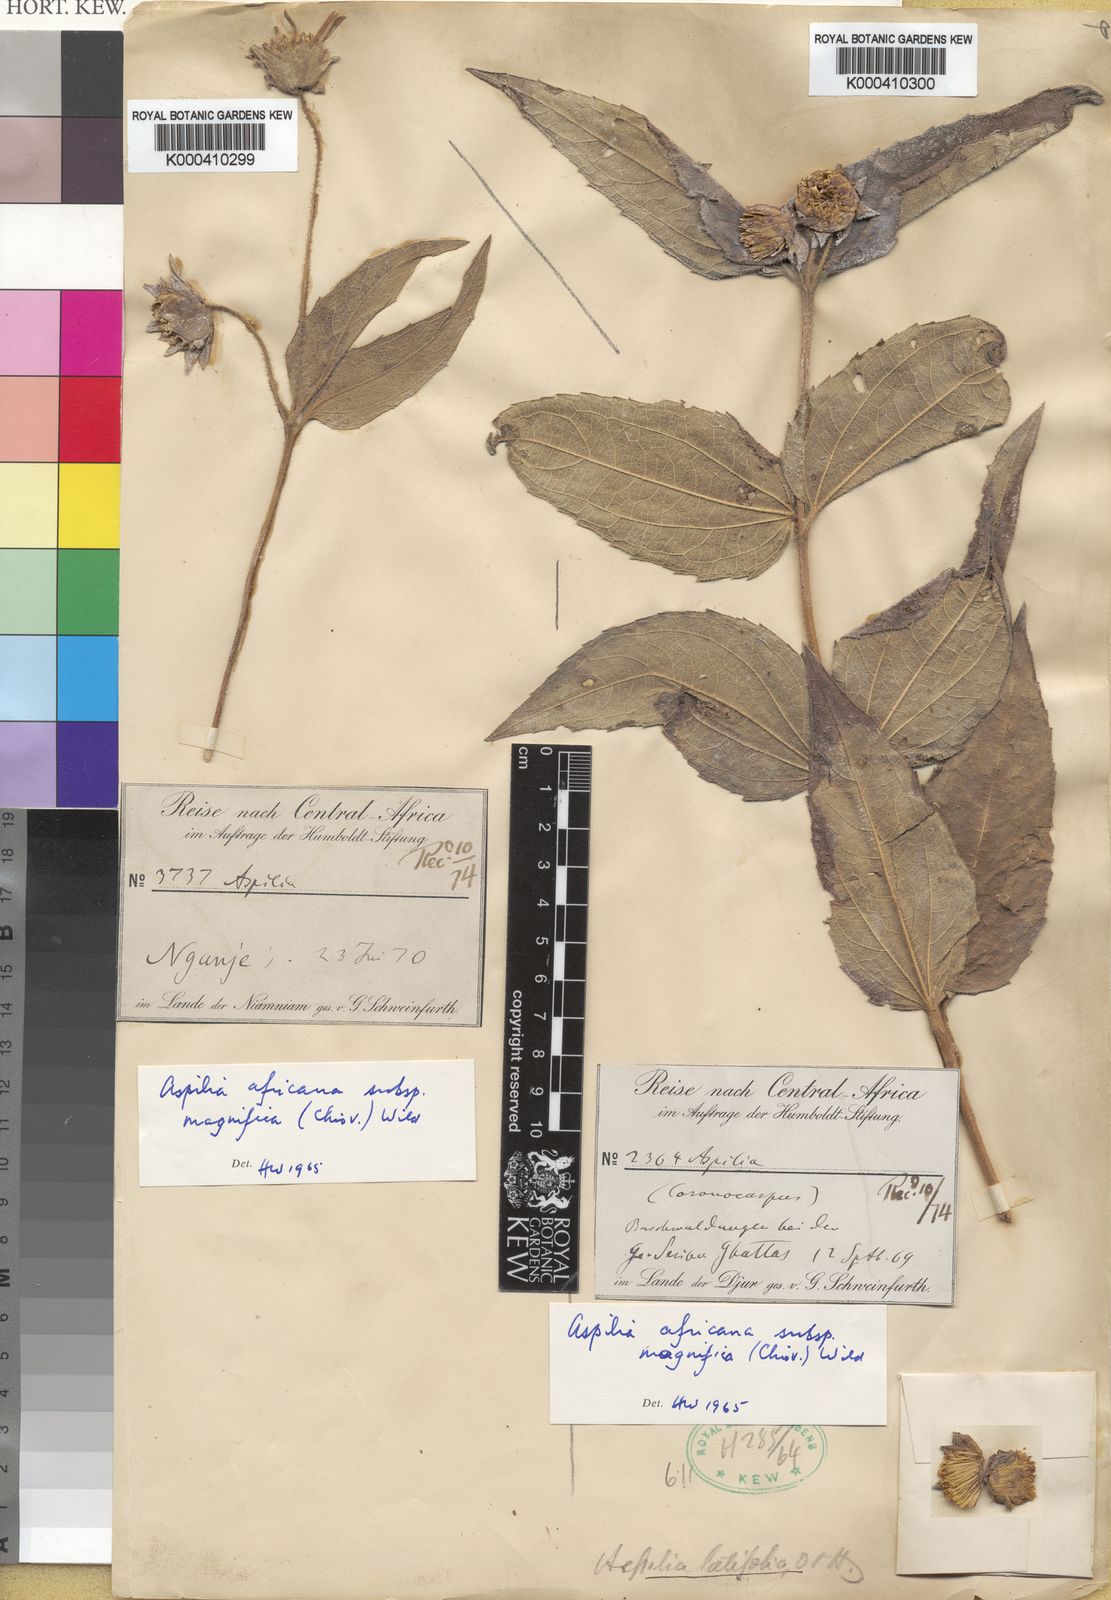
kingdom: Plantae
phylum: Tracheophyta
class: Magnoliopsida
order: Asterales
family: Asteraceae
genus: Aspilia
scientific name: Aspilia africana
